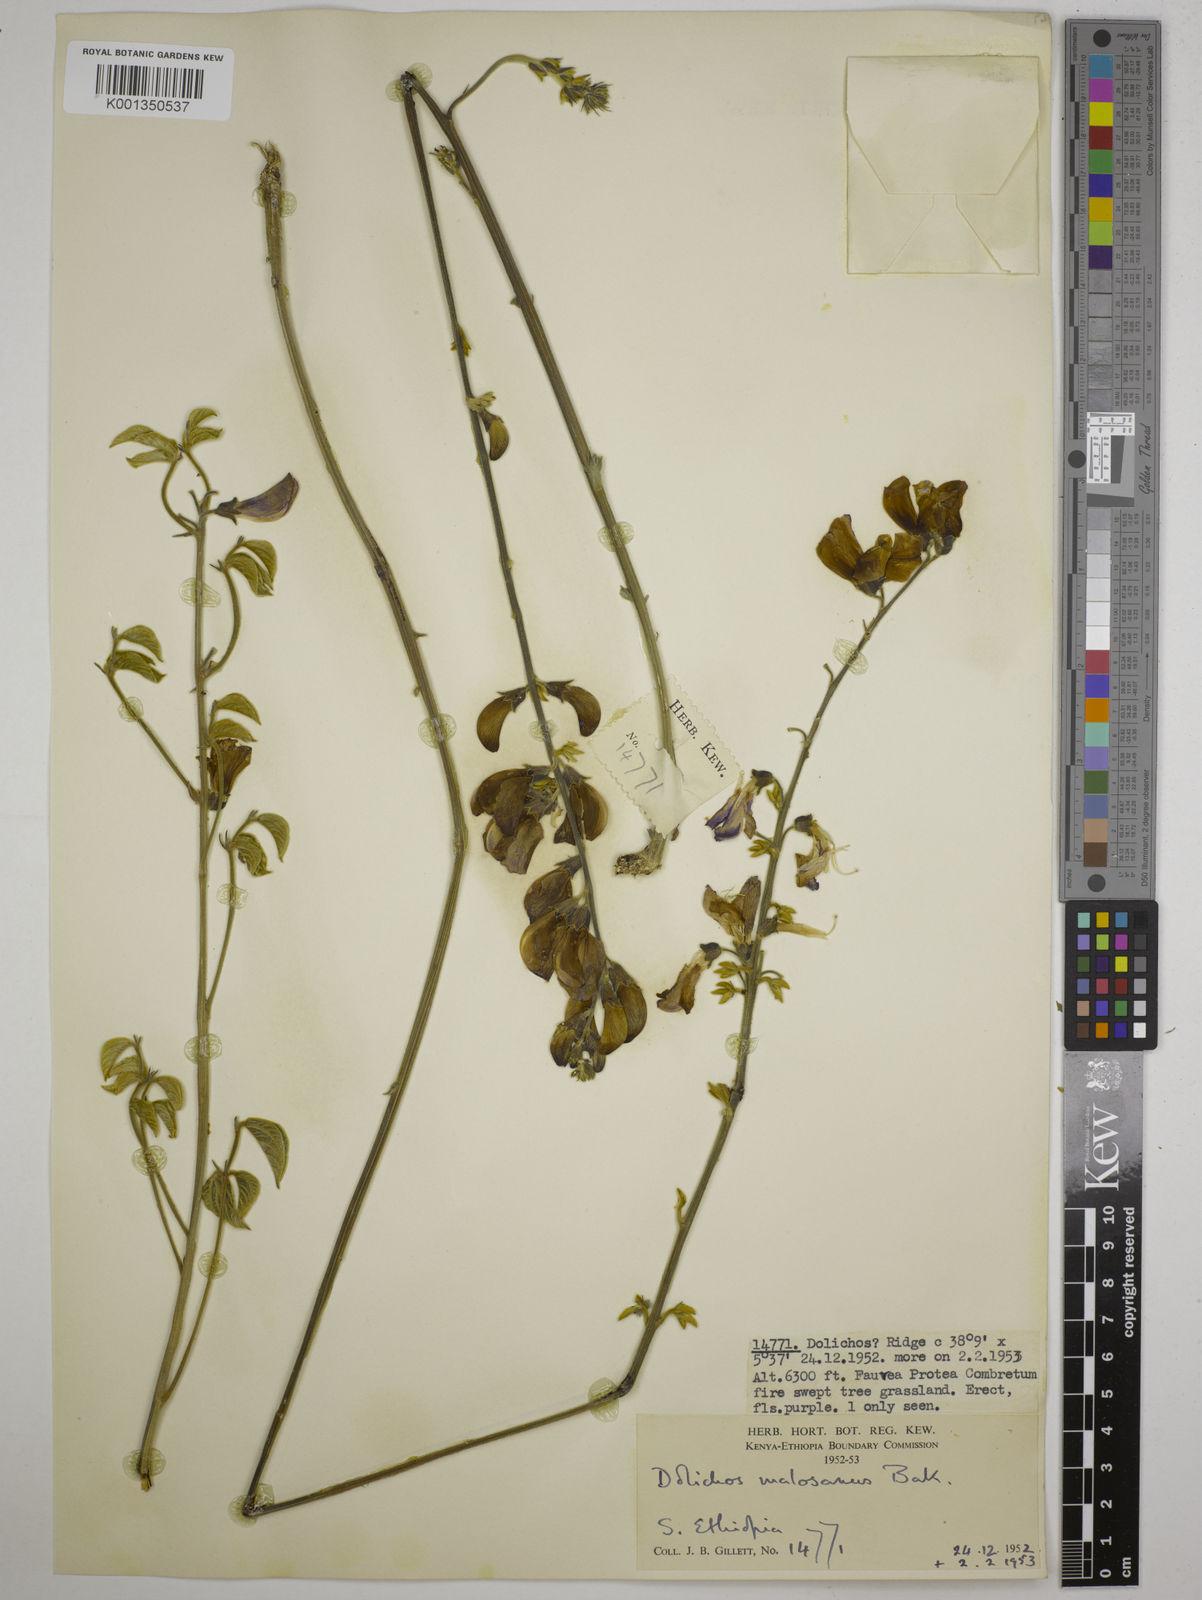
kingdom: Plantae
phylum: Tracheophyta
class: Magnoliopsida
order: Fabales
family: Fabaceae
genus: Dolichos
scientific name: Dolichos kilimandscharicus
